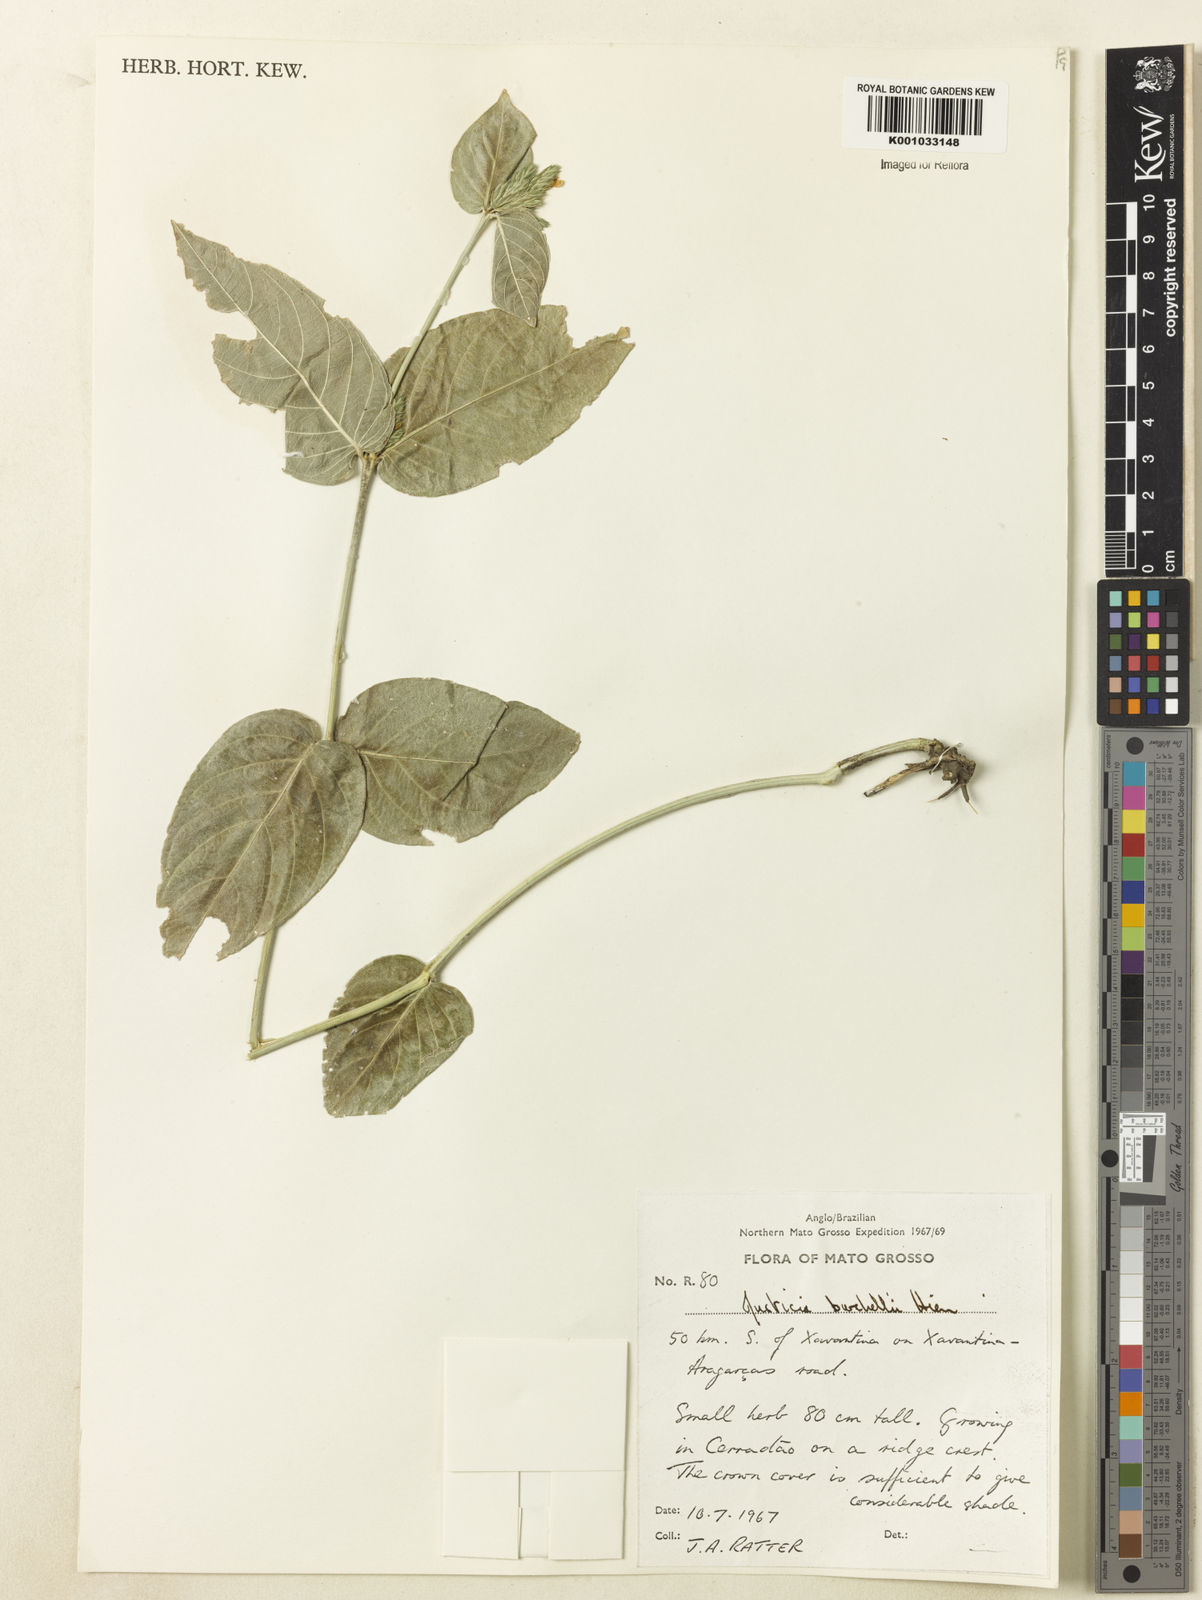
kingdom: Plantae
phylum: Tracheophyta
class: Magnoliopsida
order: Lamiales
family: Acanthaceae
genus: Justicia
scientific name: Justicia burchellii
